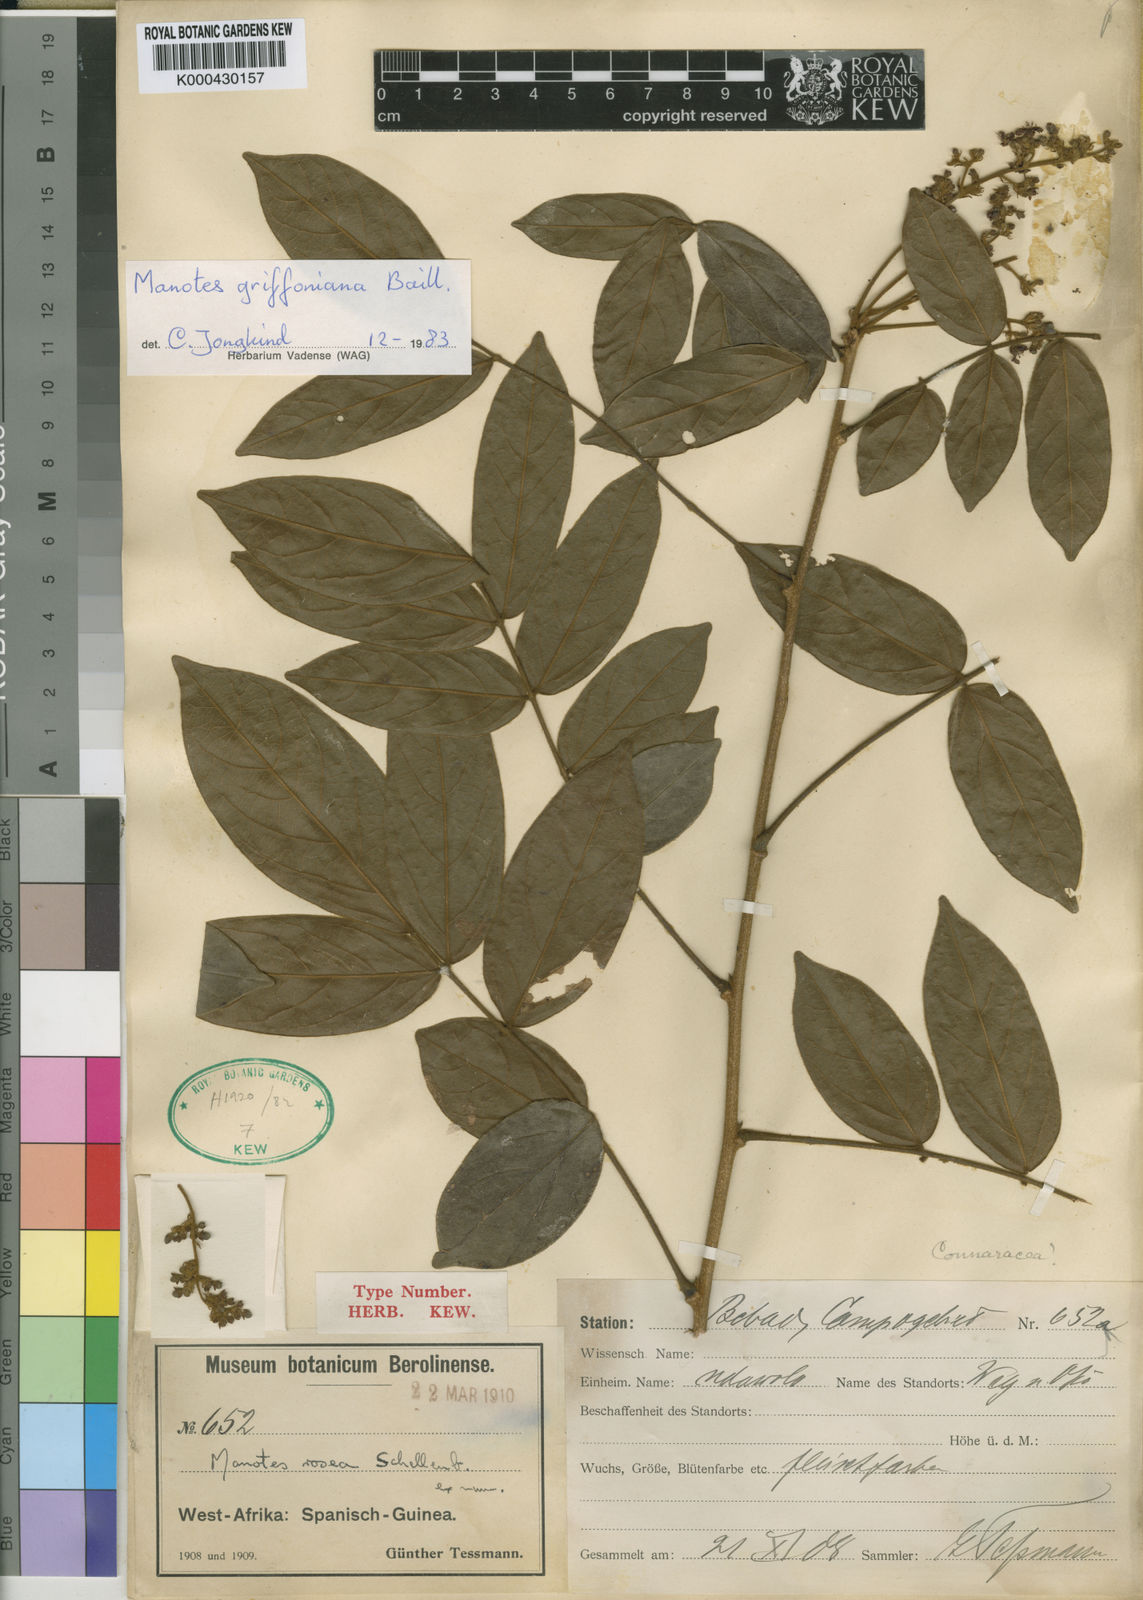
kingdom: Plantae
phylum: Tracheophyta
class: Magnoliopsida
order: Oxalidales
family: Connaraceae
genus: Manotes
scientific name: Manotes griffoniana
